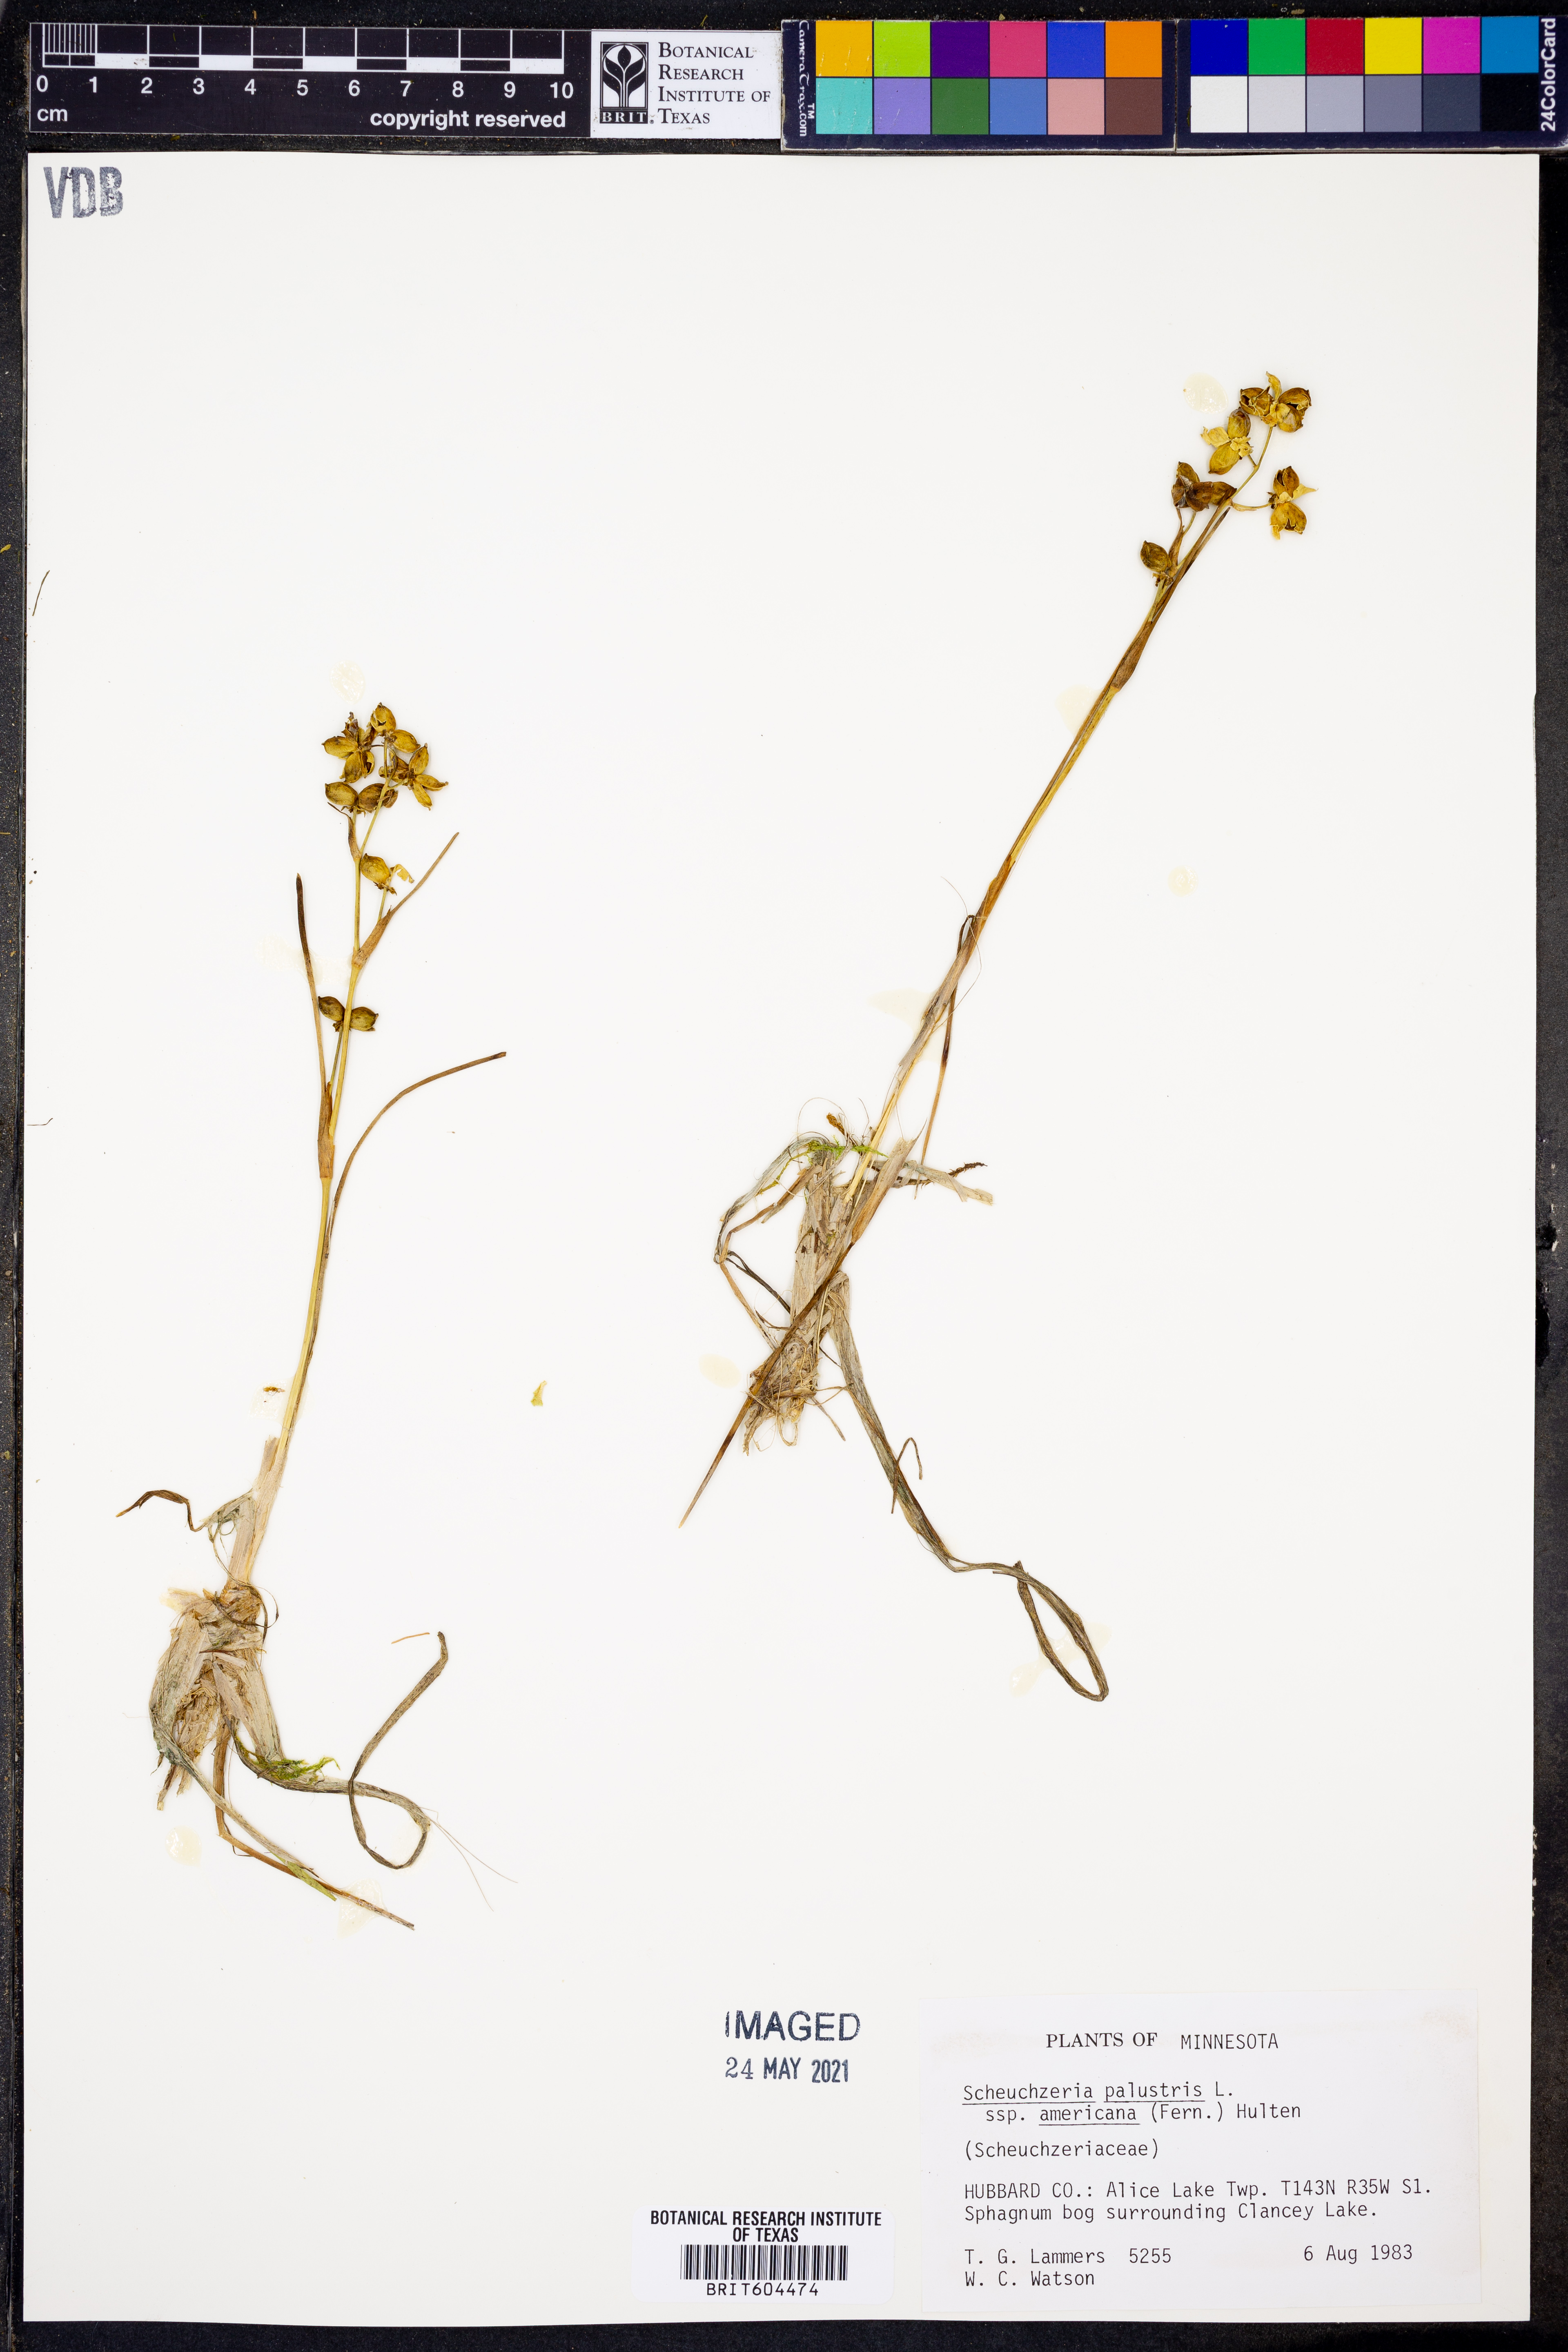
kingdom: Plantae
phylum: Tracheophyta
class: Liliopsida
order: Alismatales
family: Scheuchzeriaceae
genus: Scheuchzeria
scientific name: Scheuchzeria palustris
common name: Rannoch-rush
